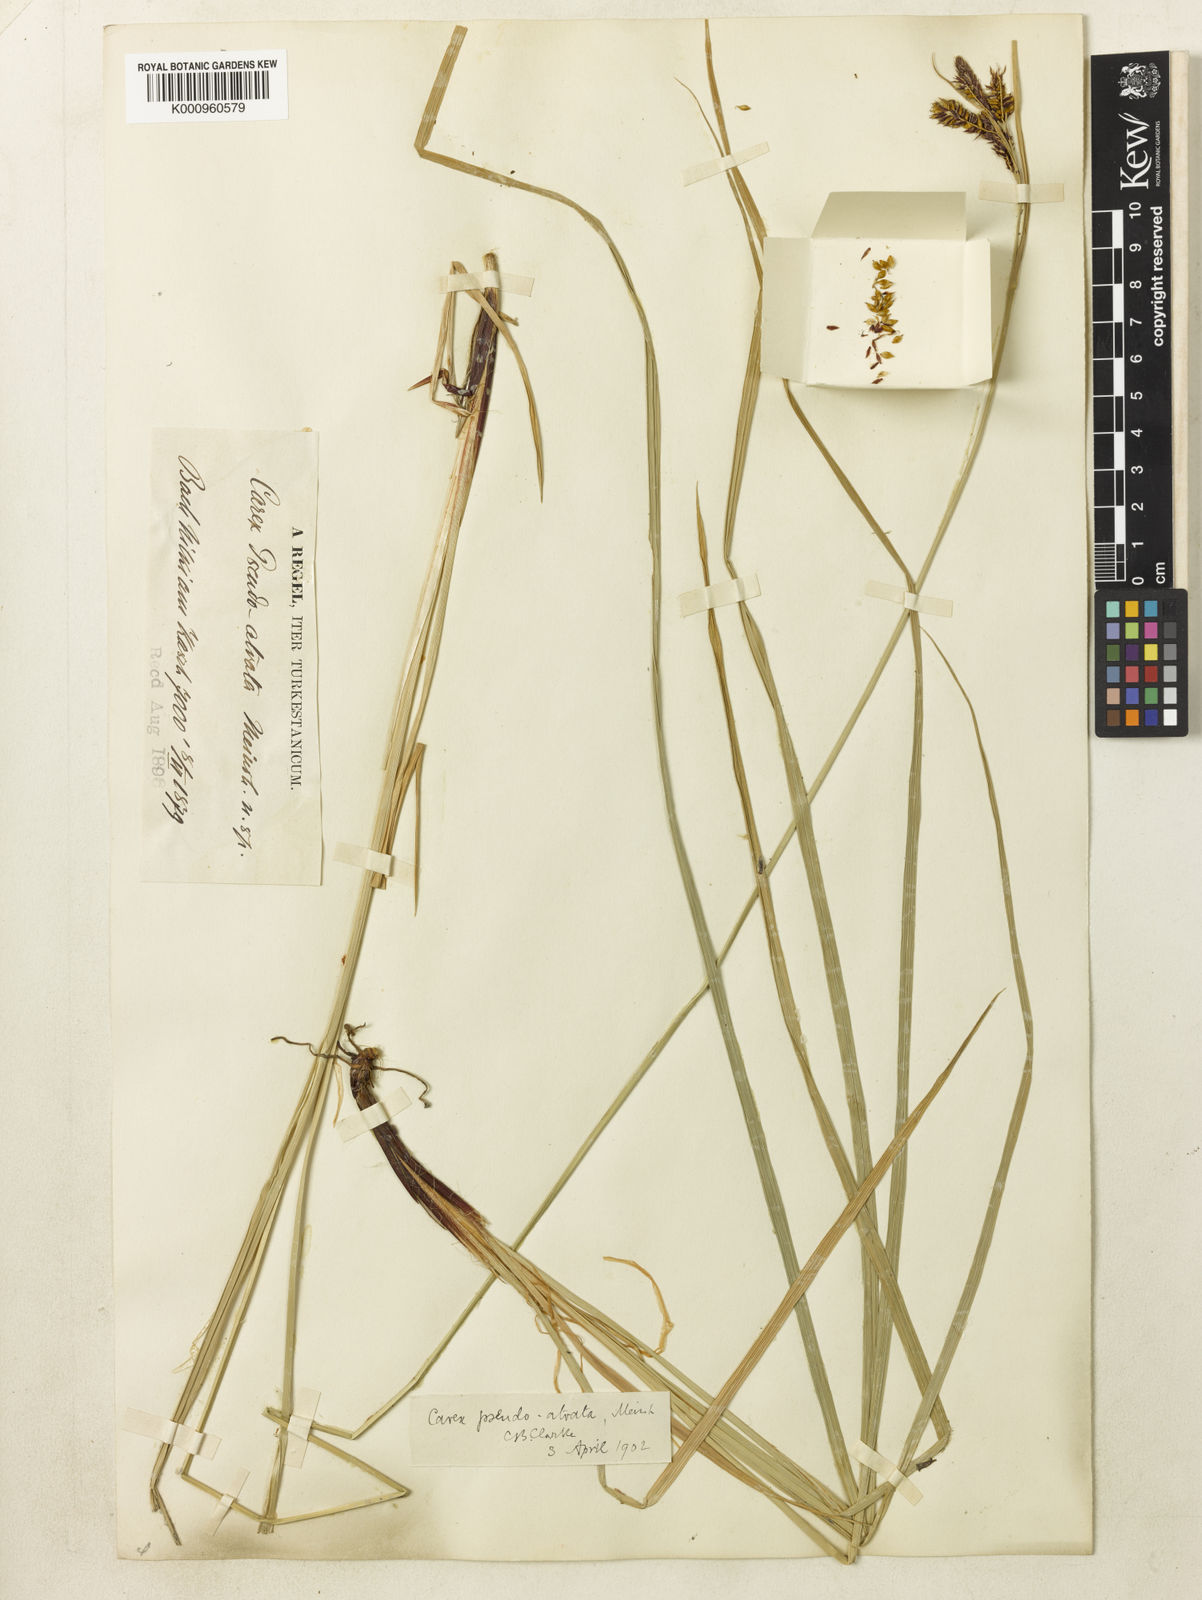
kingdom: Plantae
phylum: Tracheophyta
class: Liliopsida
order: Poales
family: Cyperaceae
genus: Carex
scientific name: Carex atrata
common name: Black alpine sedge
